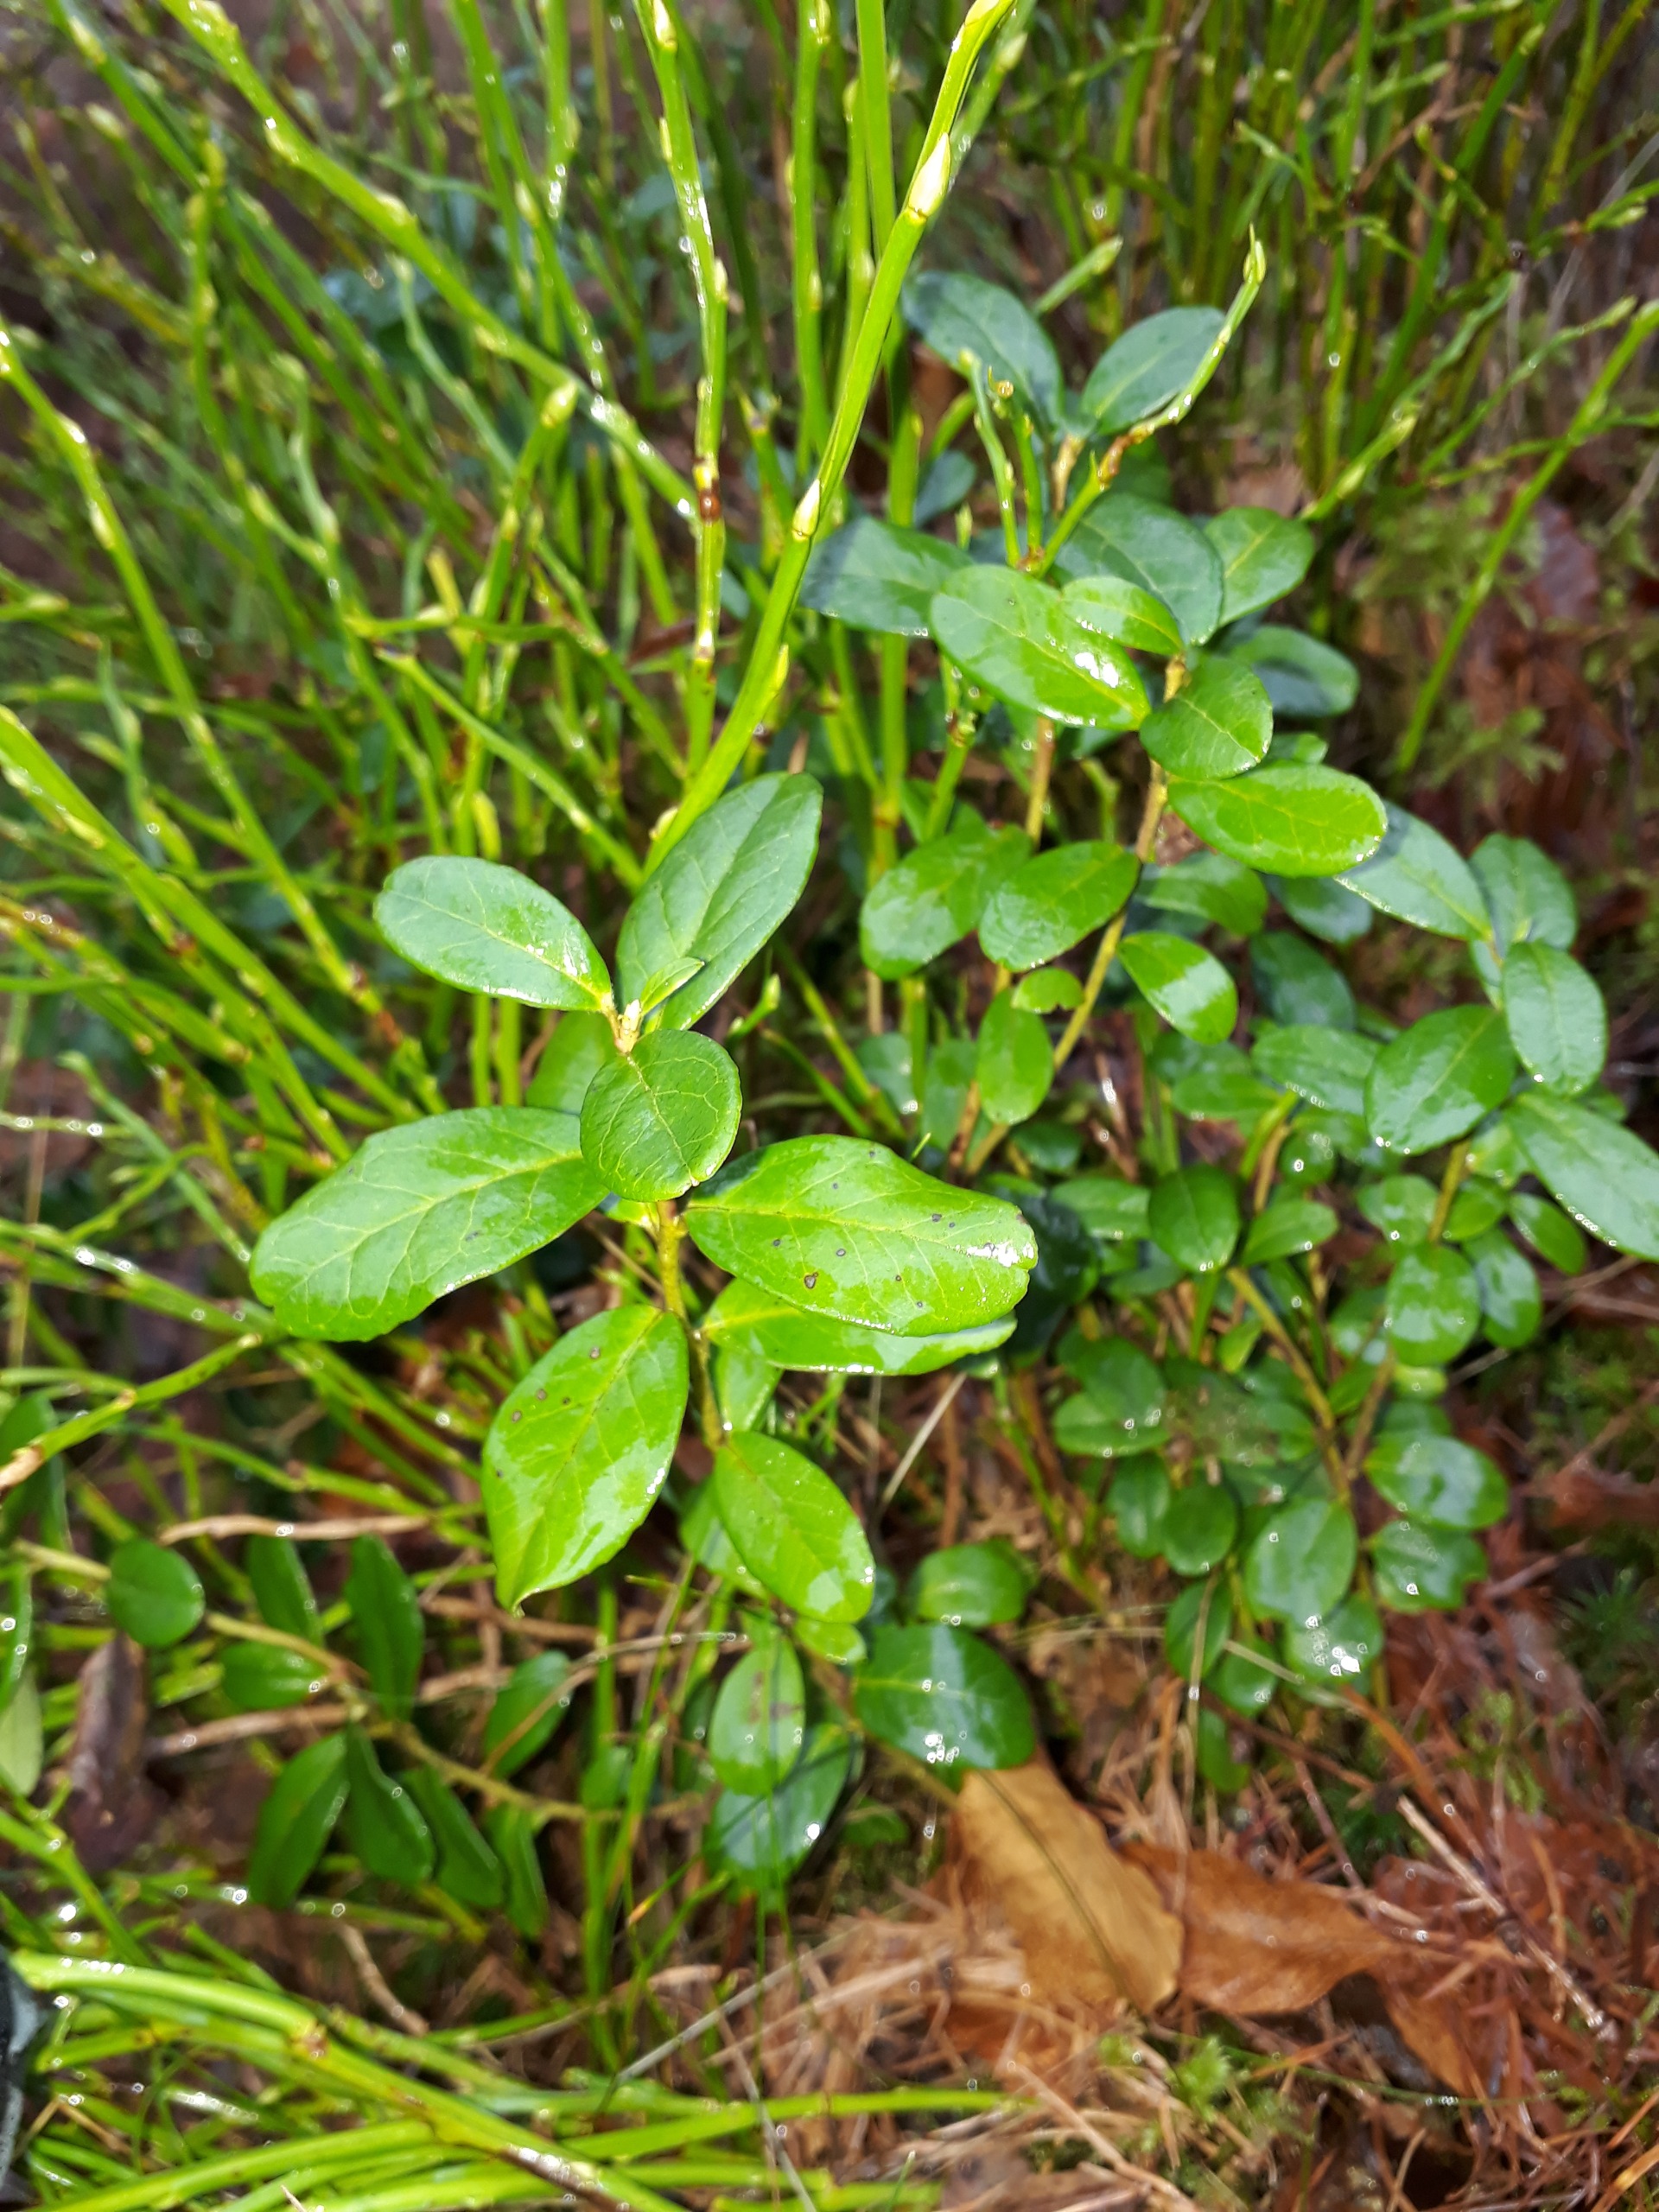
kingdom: Plantae
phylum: Tracheophyta
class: Magnoliopsida
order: Ericales
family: Ericaceae
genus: Vaccinium
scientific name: Vaccinium vitis-idaea
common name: Tyttebær
